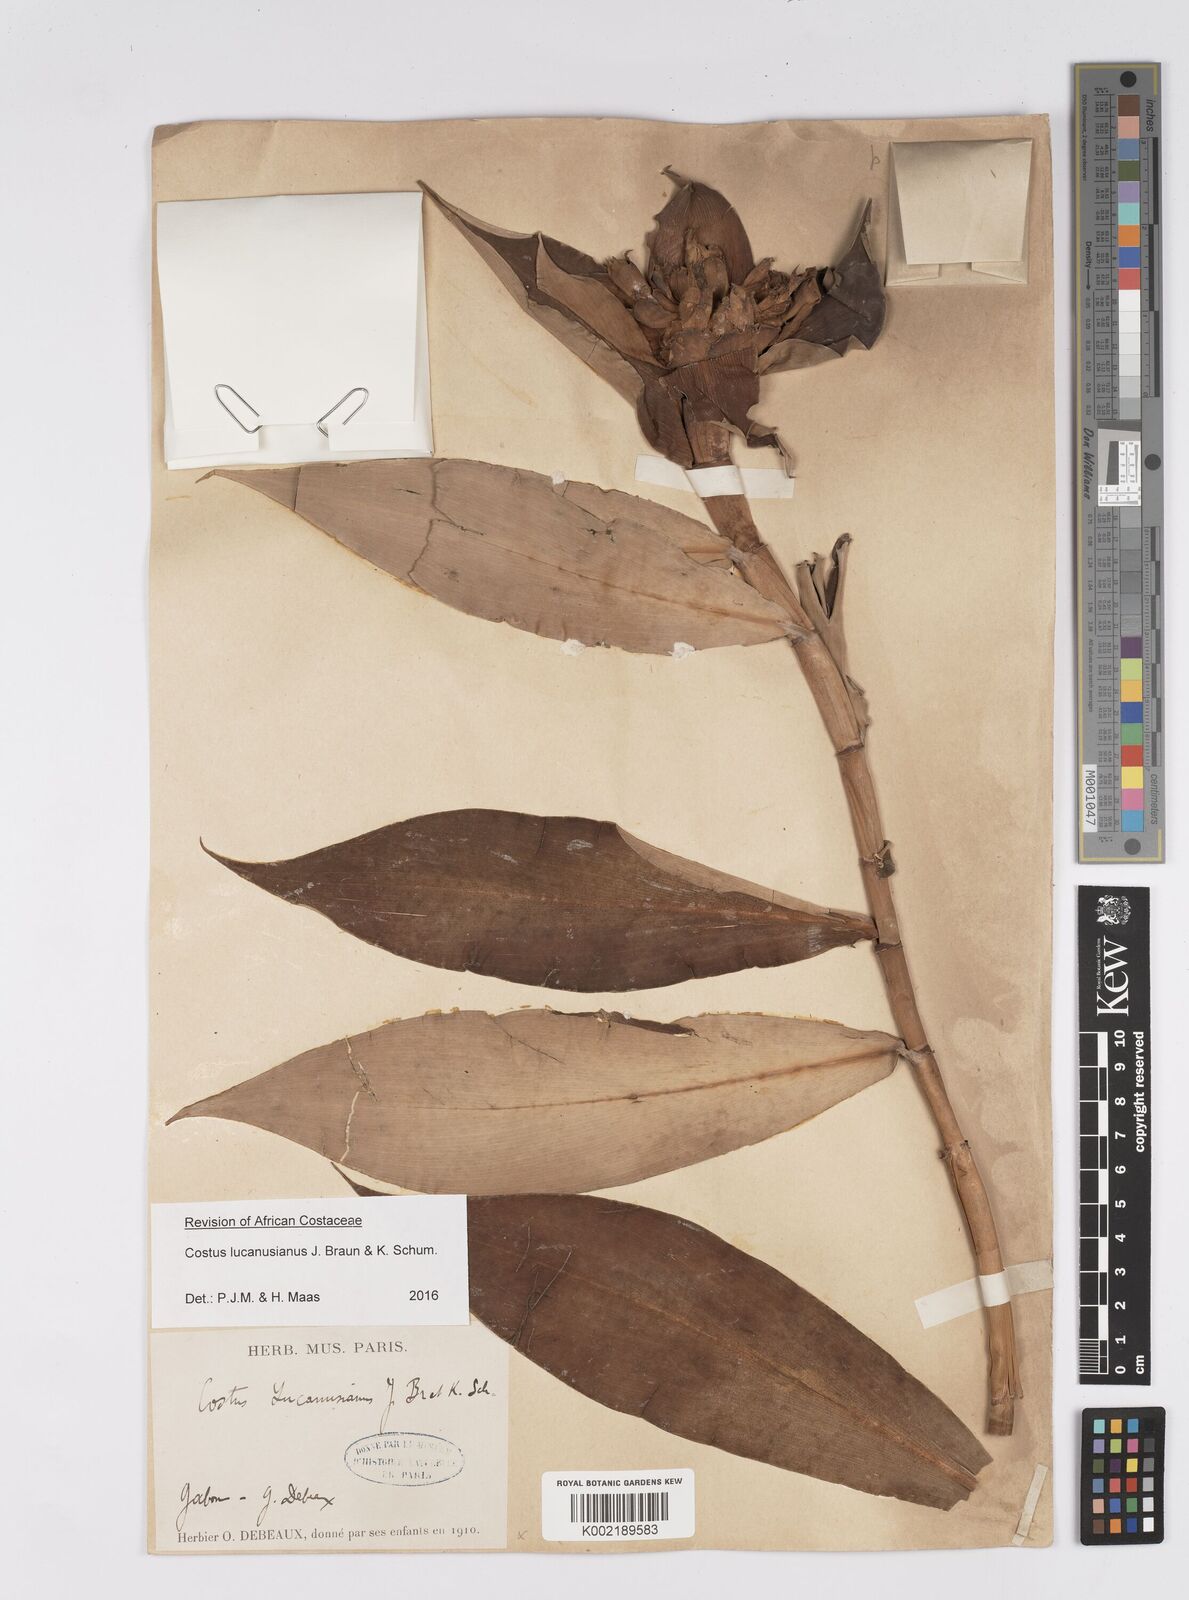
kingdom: Plantae
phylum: Tracheophyta
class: Liliopsida
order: Zingiberales
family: Costaceae
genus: Costus
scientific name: Costus lucanusianus
